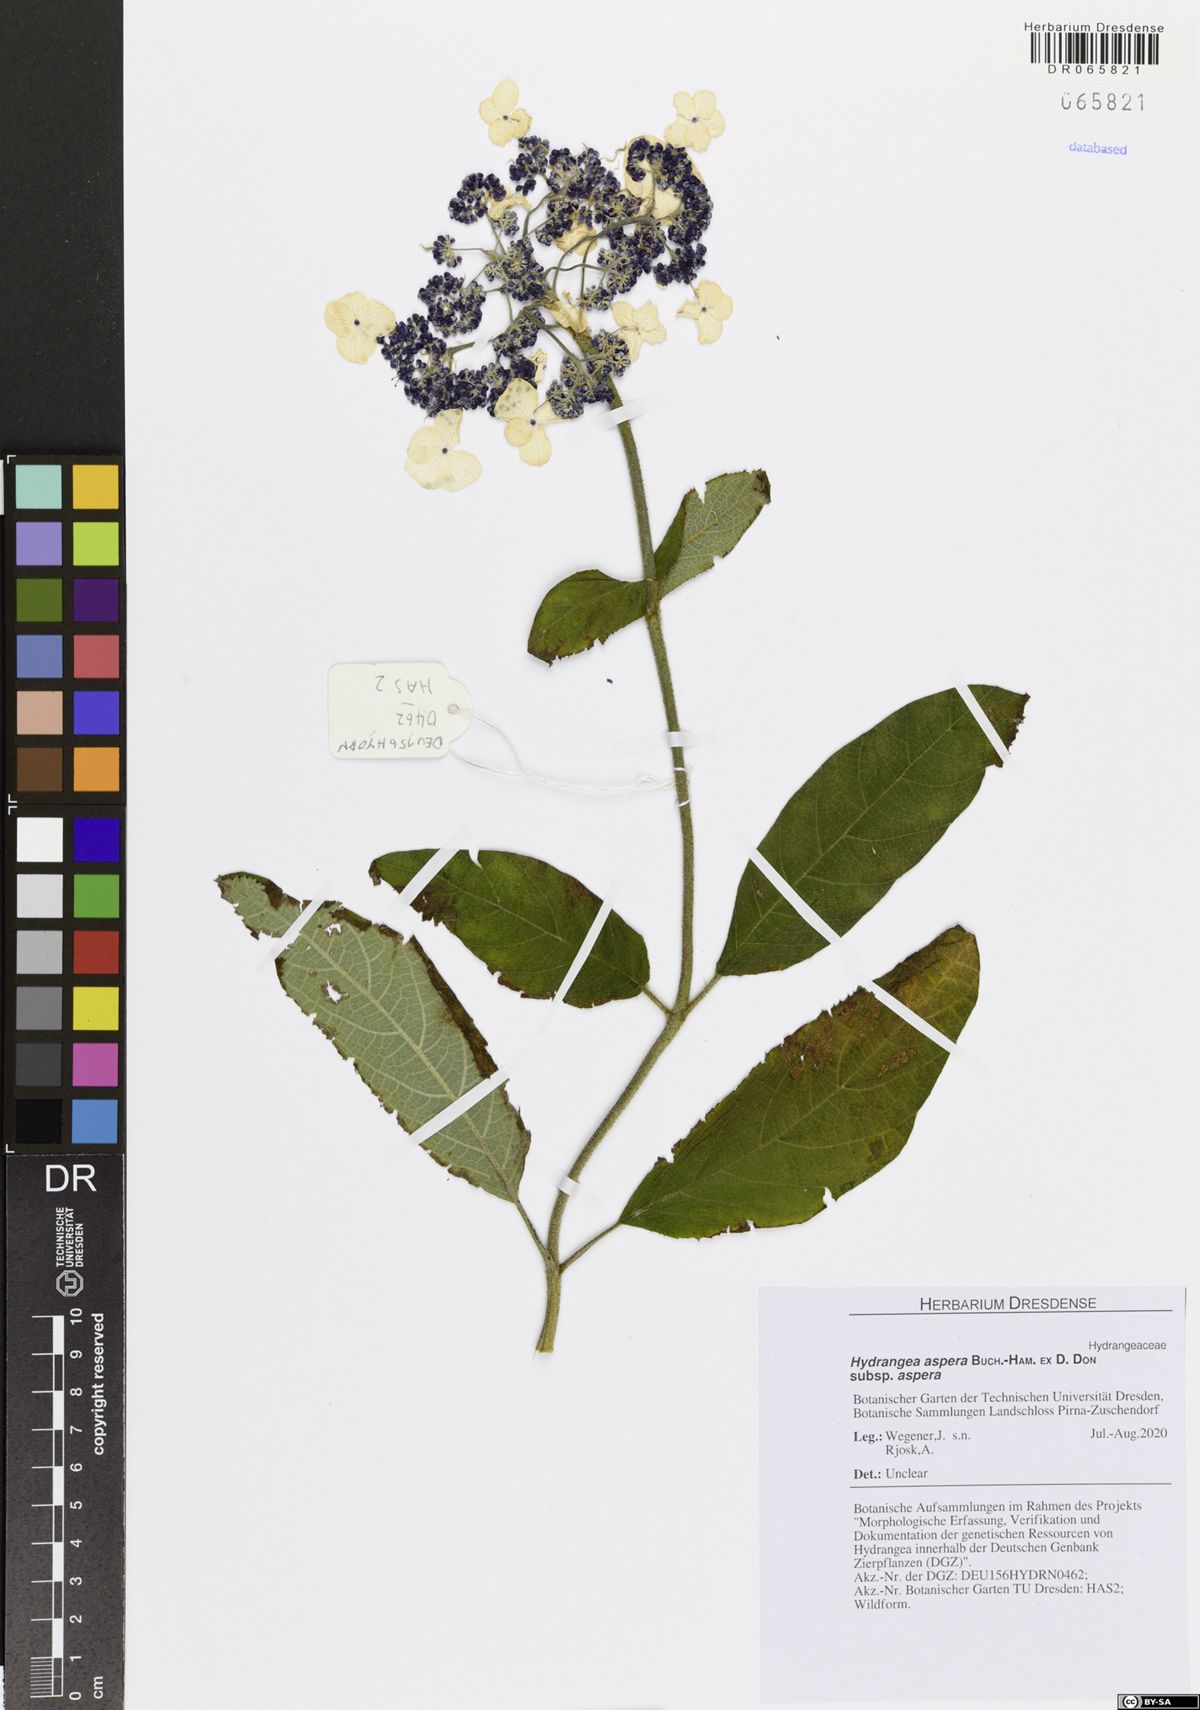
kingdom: Plantae
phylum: Tracheophyta
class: Magnoliopsida
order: Cornales
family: Hydrangeaceae
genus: Hydrangea
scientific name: Hydrangea aspera
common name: Rough-leaf hydrangea
